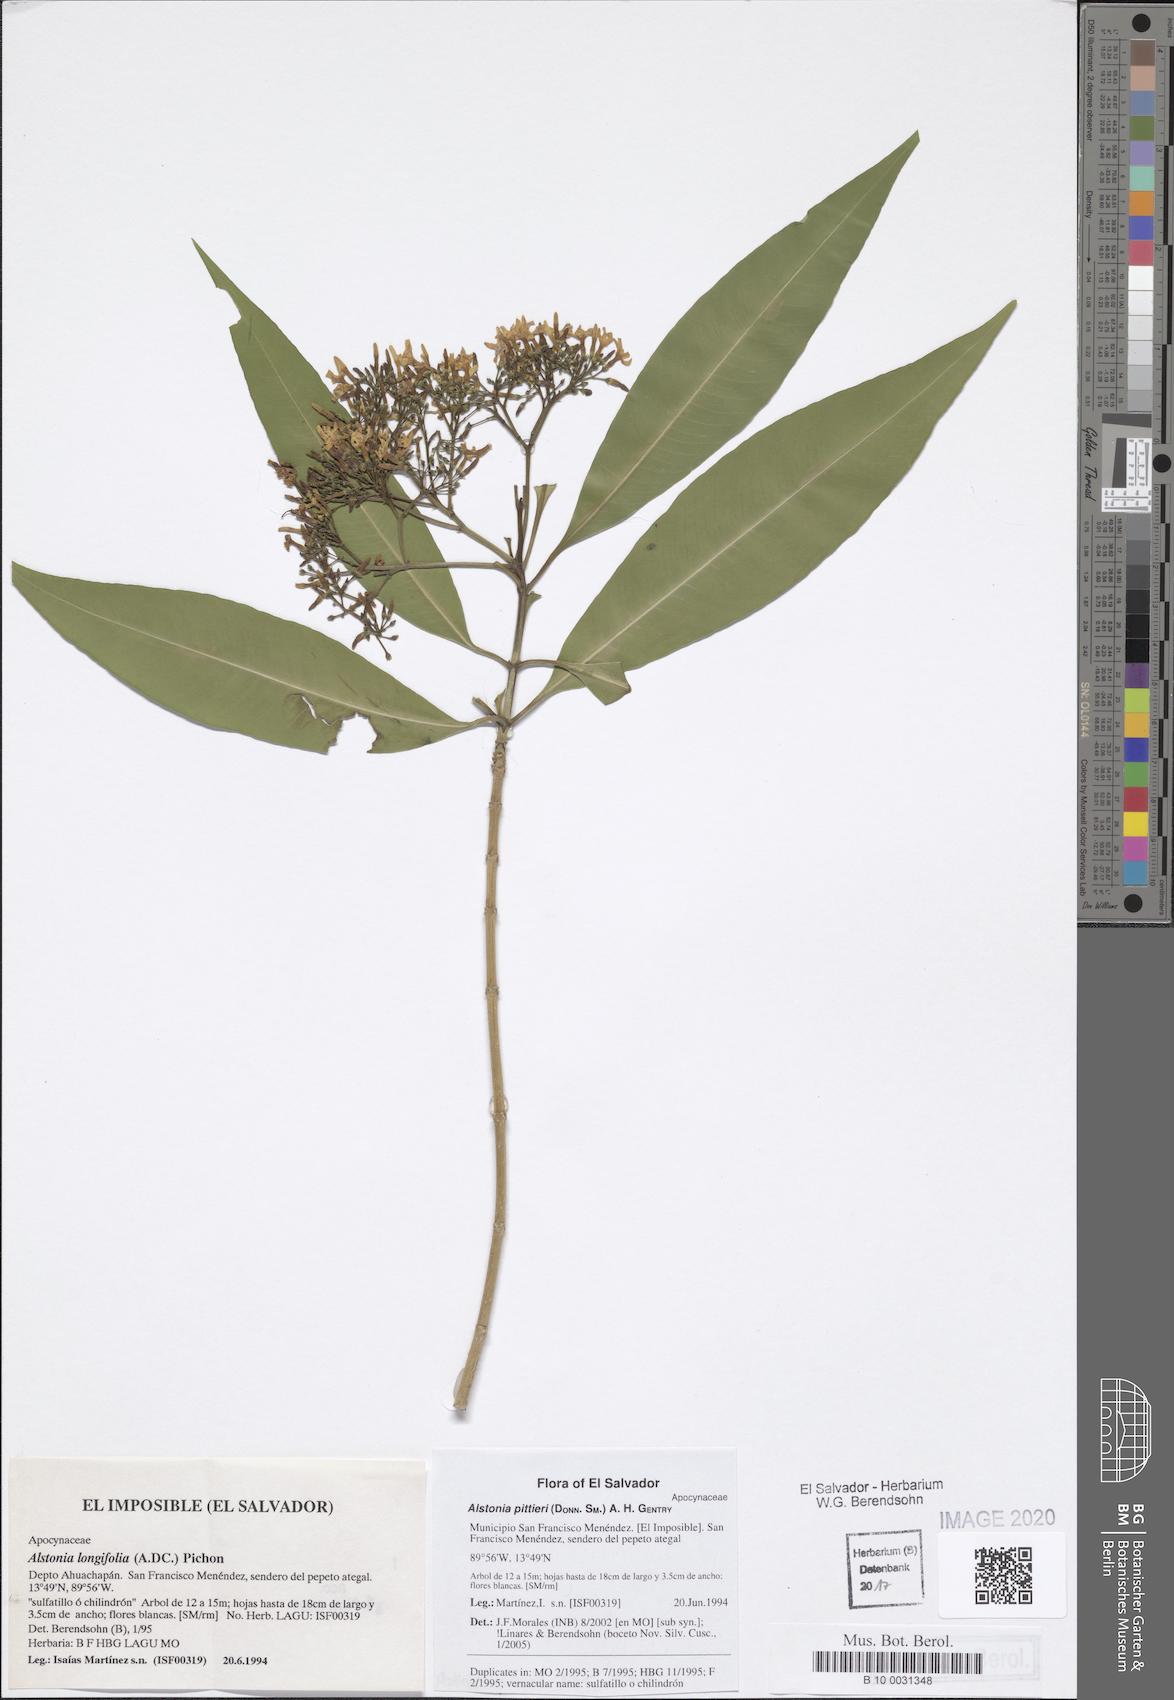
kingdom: Plantae
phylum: Tracheophyta
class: Magnoliopsida
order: Gentianales
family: Apocynaceae
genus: Tonduzia
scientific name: Tonduzia longifolia
